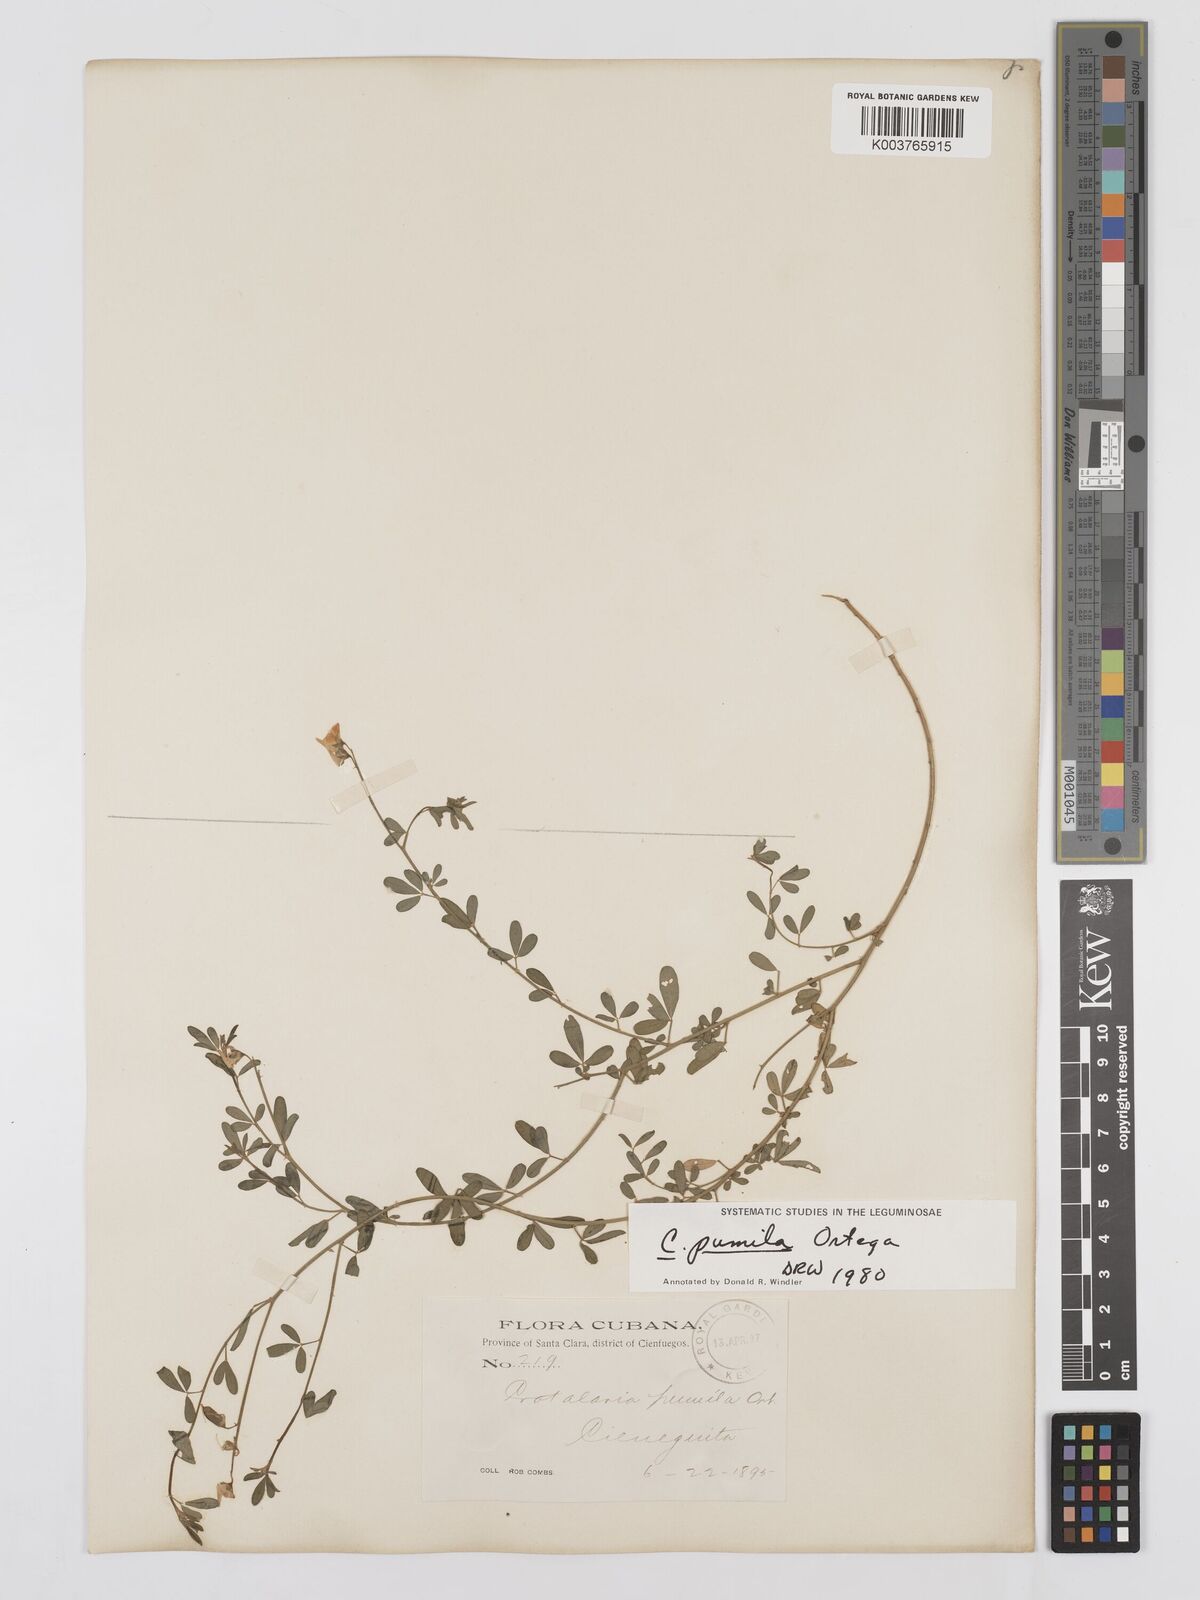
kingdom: Plantae
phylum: Tracheophyta
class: Magnoliopsida
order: Fabales
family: Fabaceae
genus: Crotalaria
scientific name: Crotalaria pumila
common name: Low rattlebox
